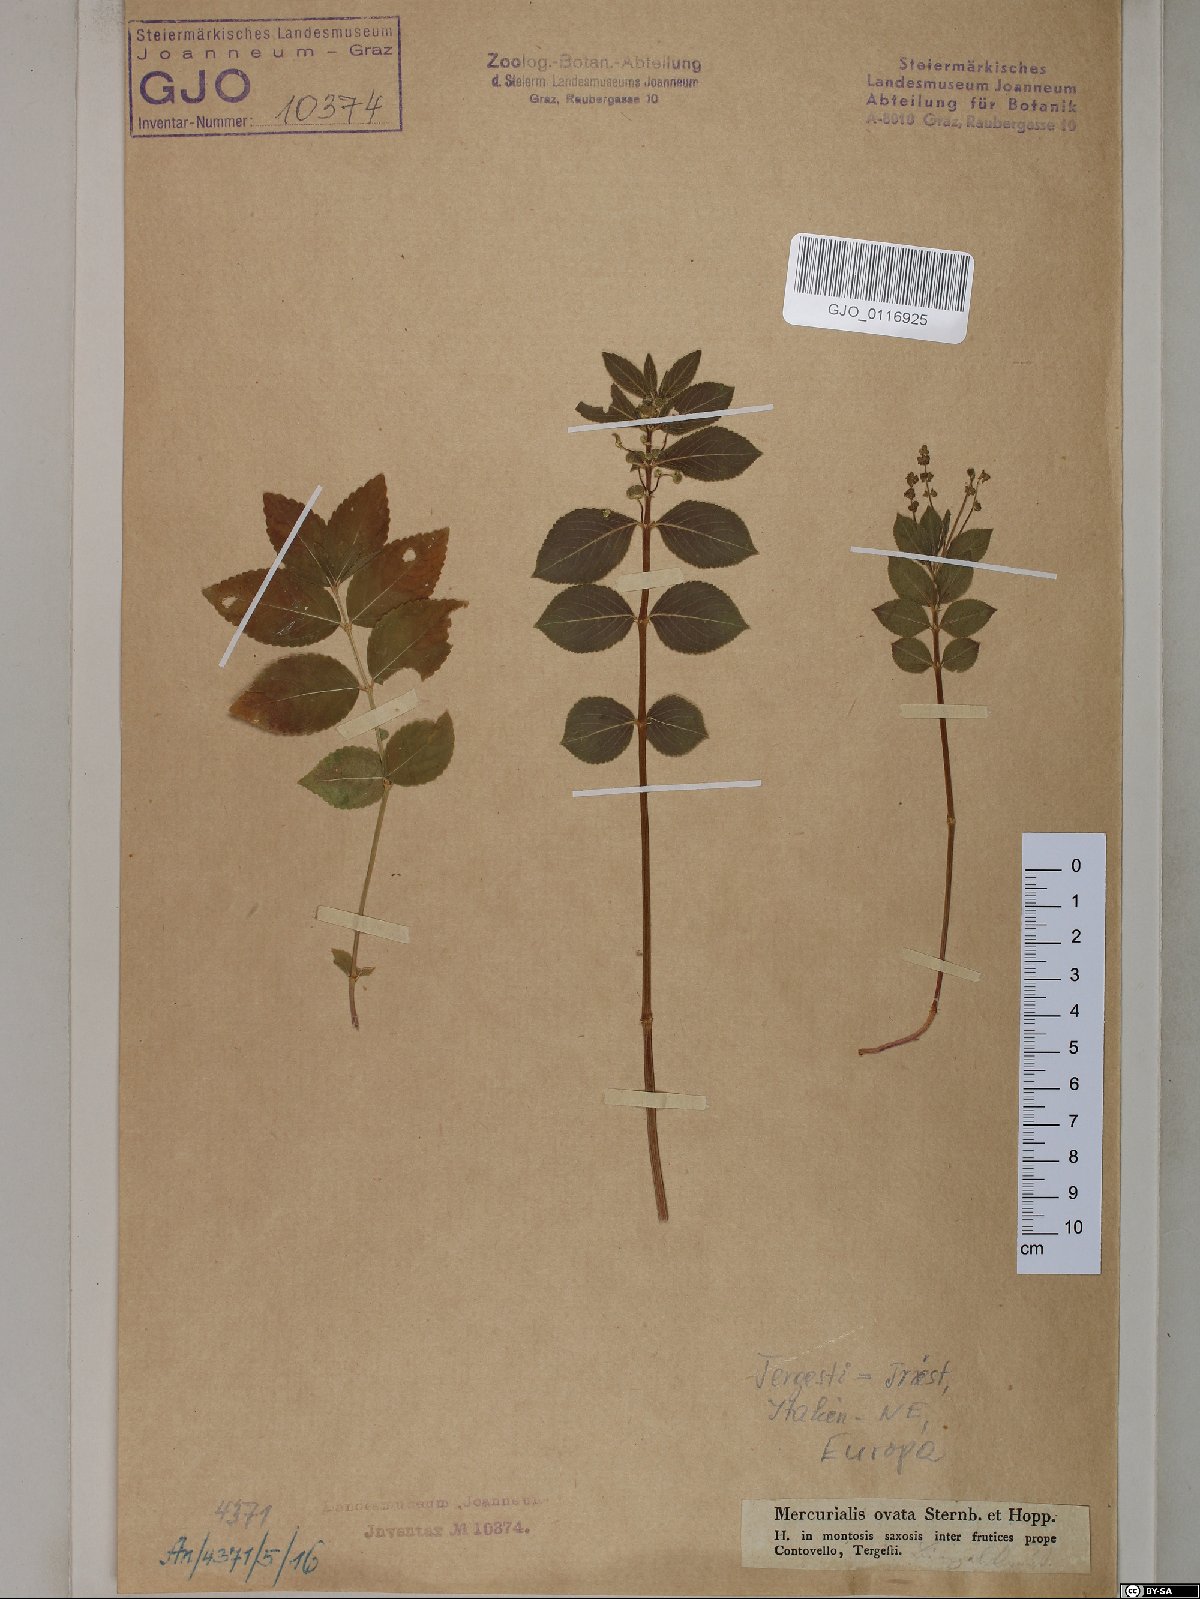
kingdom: Plantae
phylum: Tracheophyta
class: Magnoliopsida
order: Malpighiales
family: Euphorbiaceae
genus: Mercurialis
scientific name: Mercurialis ovata
